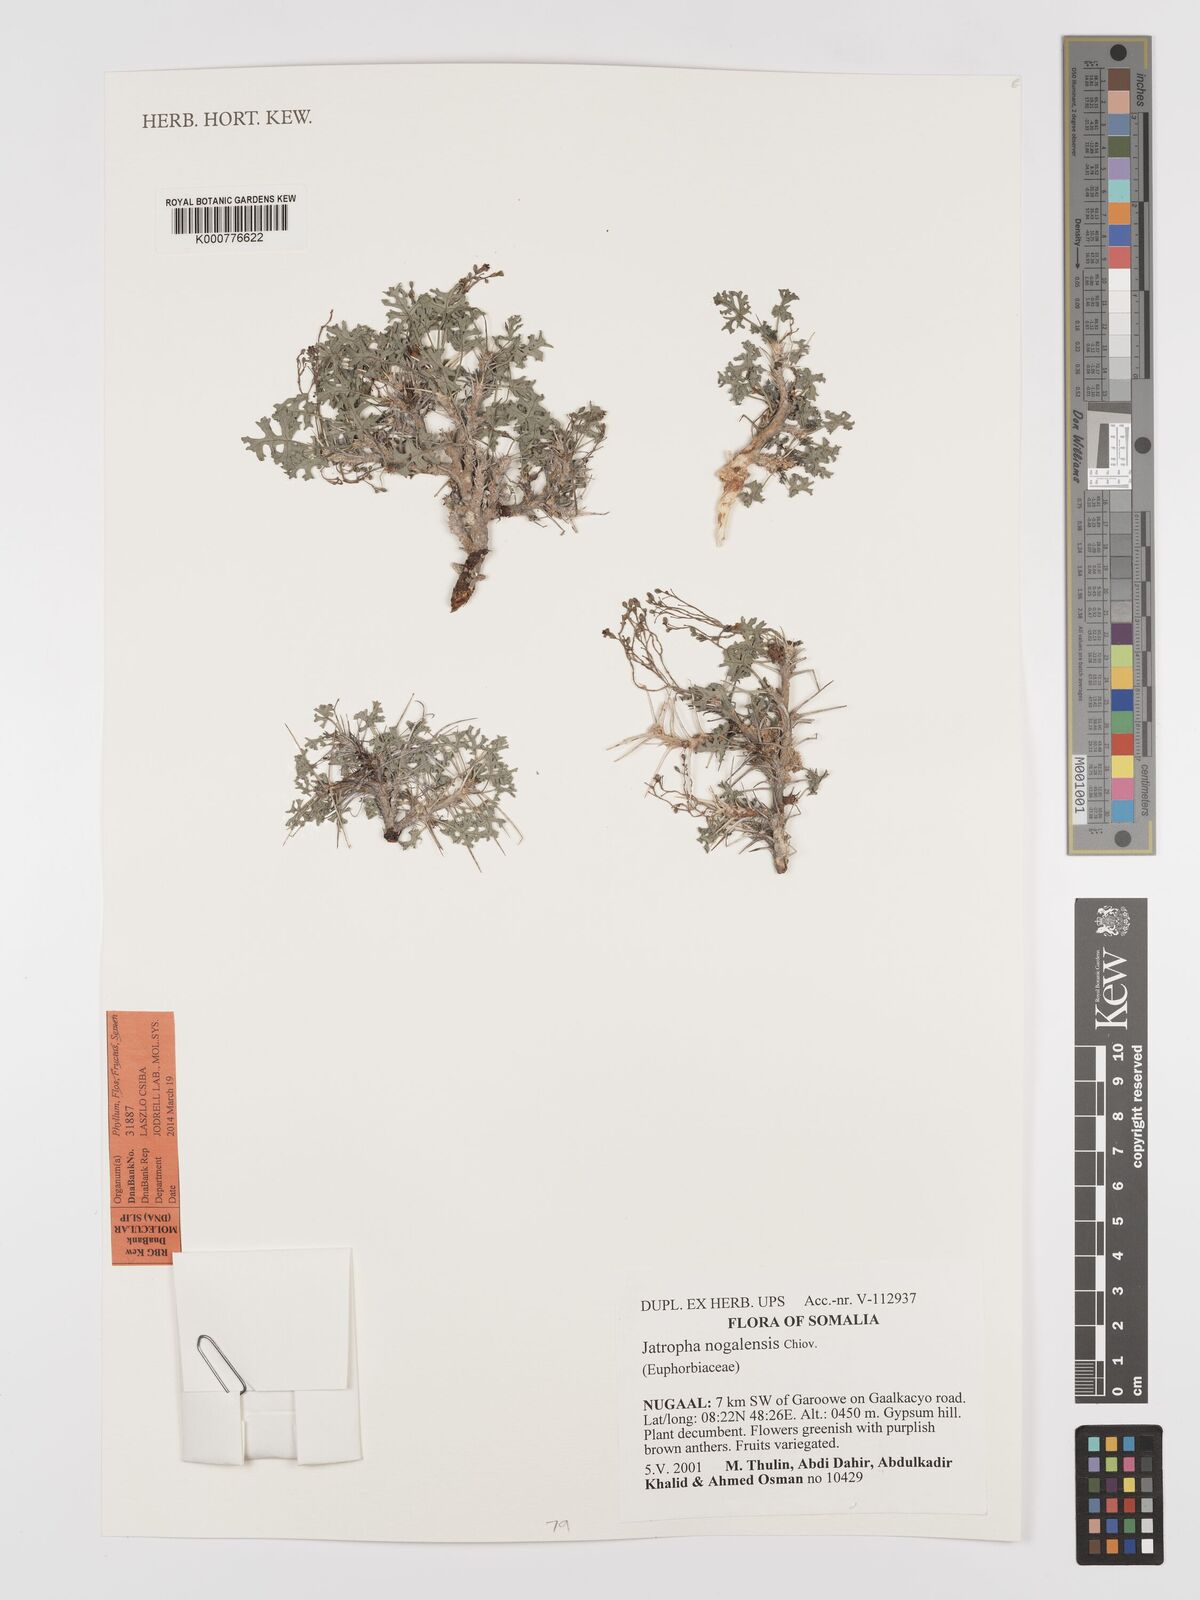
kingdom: Plantae
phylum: Tracheophyta
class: Magnoliopsida
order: Malpighiales
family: Euphorbiaceae
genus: Jatropha
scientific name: Jatropha nogalensis
